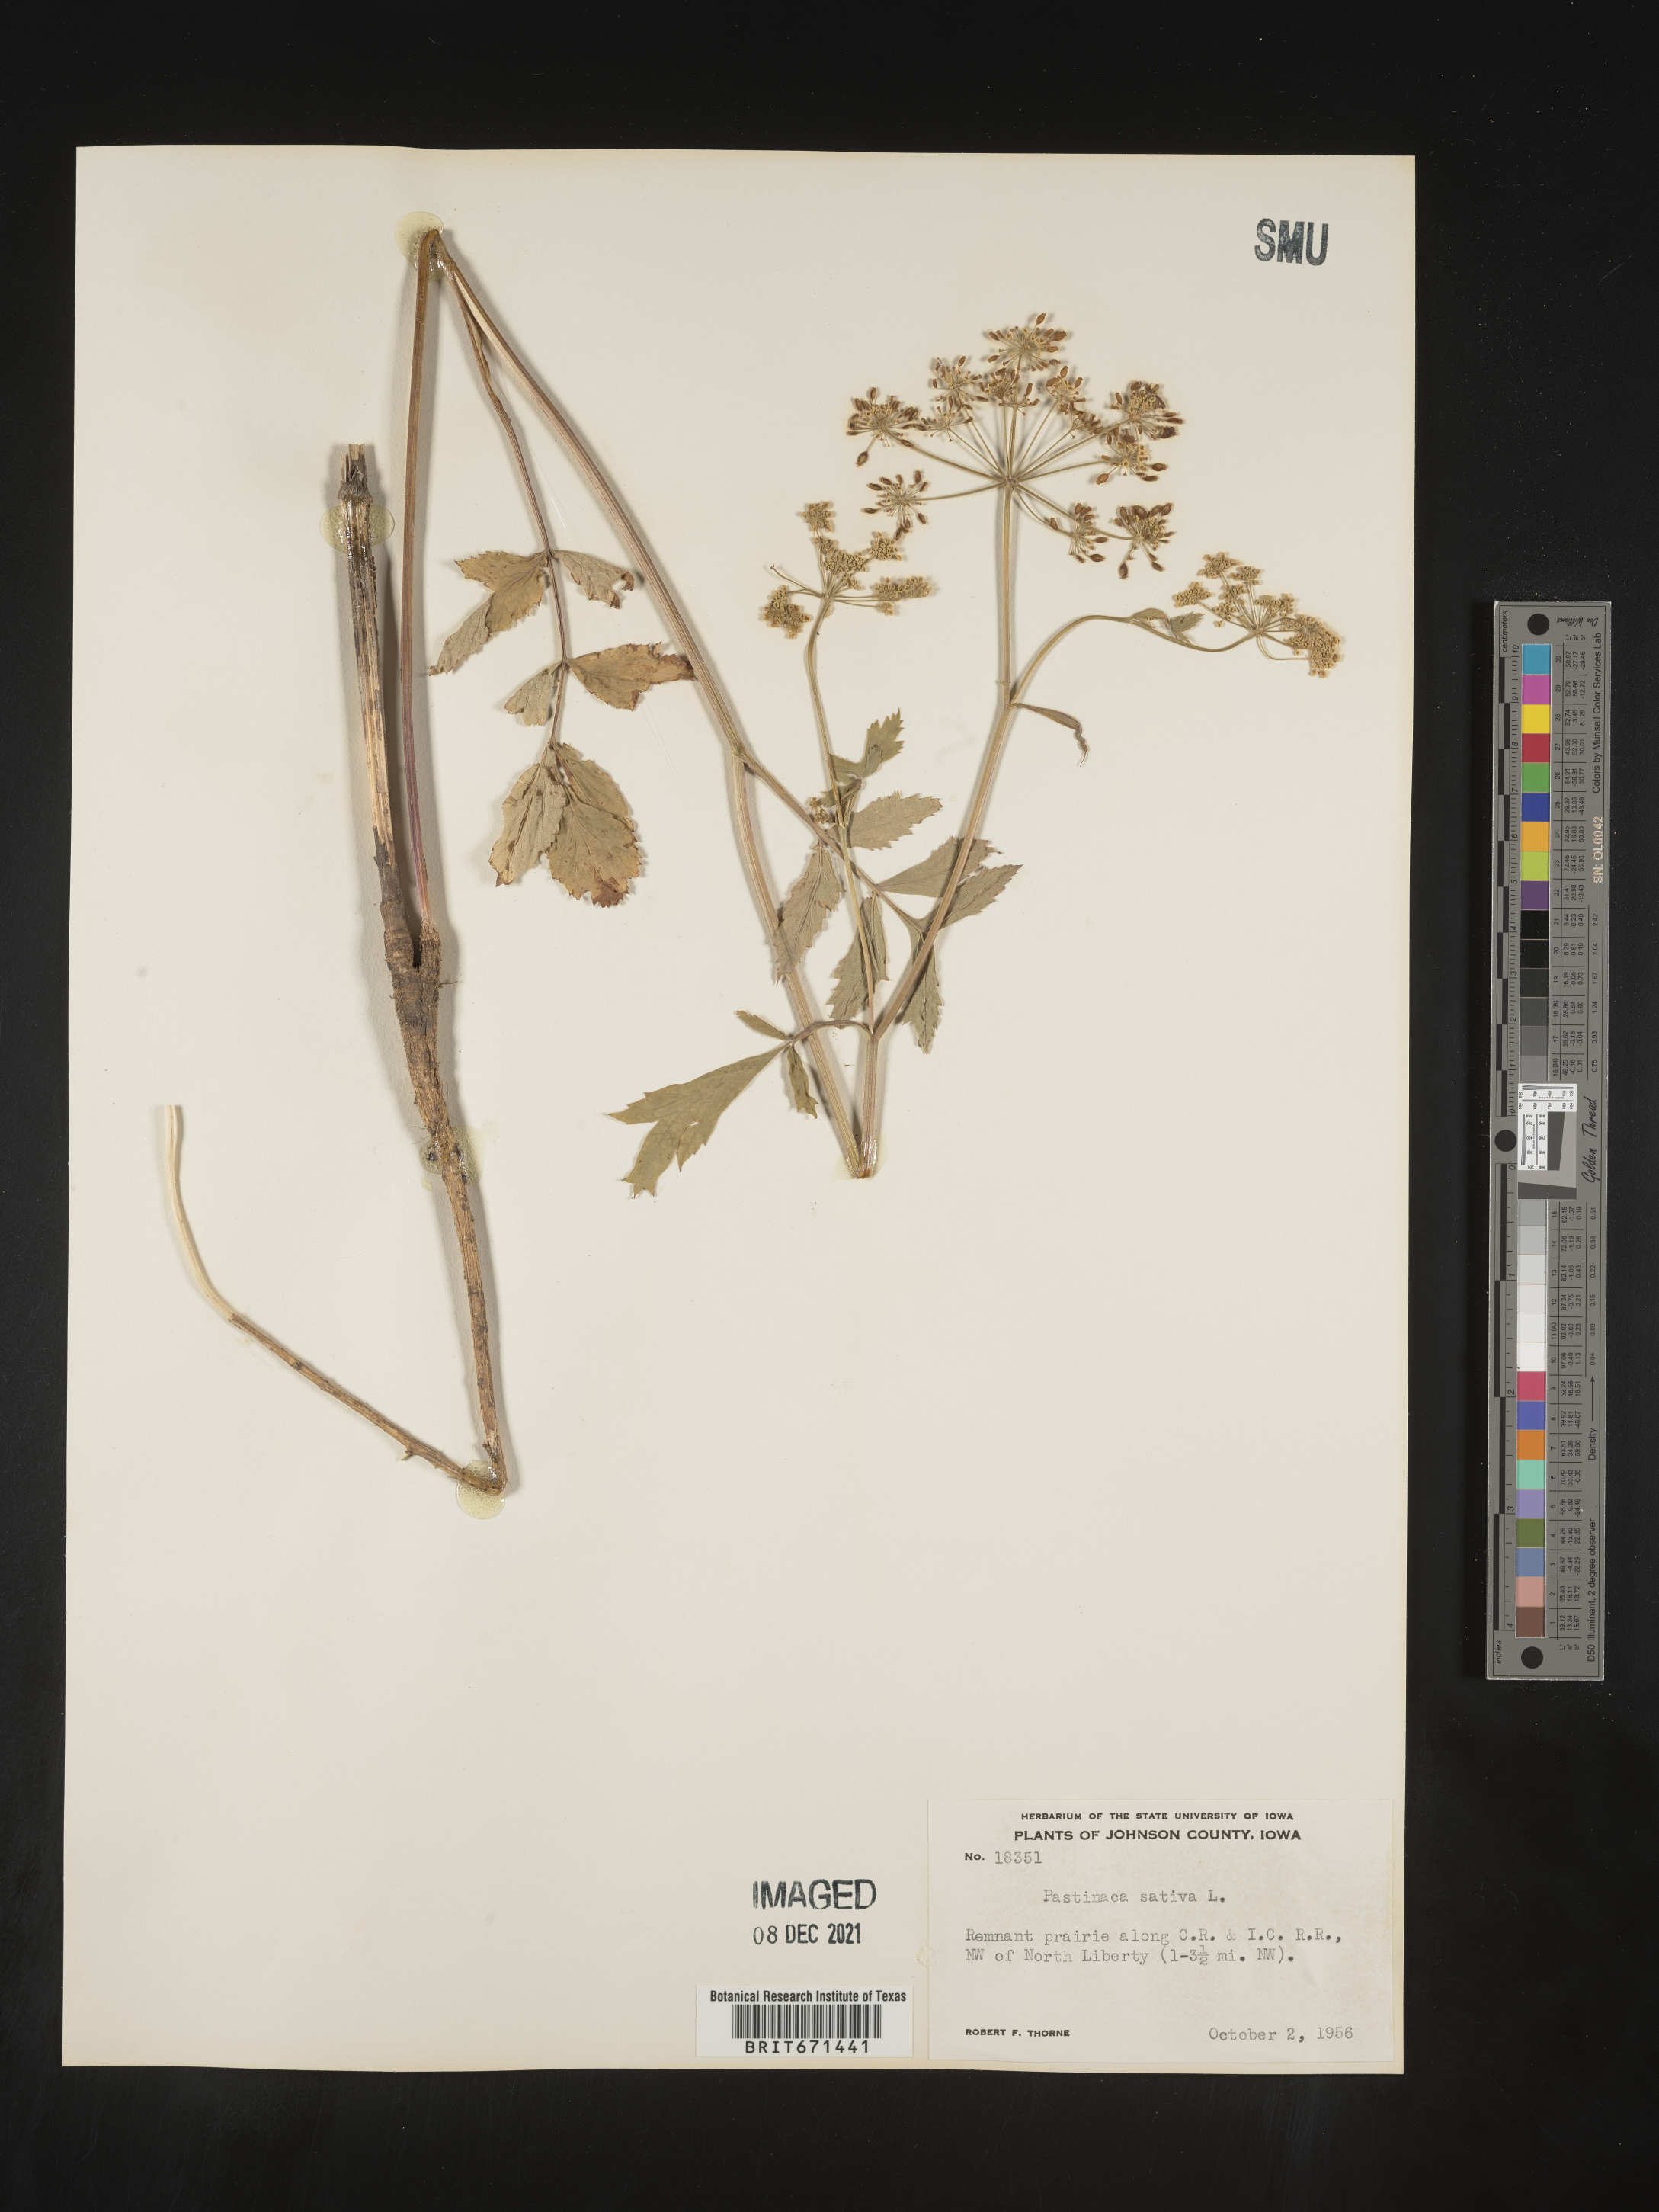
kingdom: Plantae
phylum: Tracheophyta
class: Magnoliopsida
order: Apiales
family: Apiaceae
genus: Pastinaca
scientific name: Pastinaca
